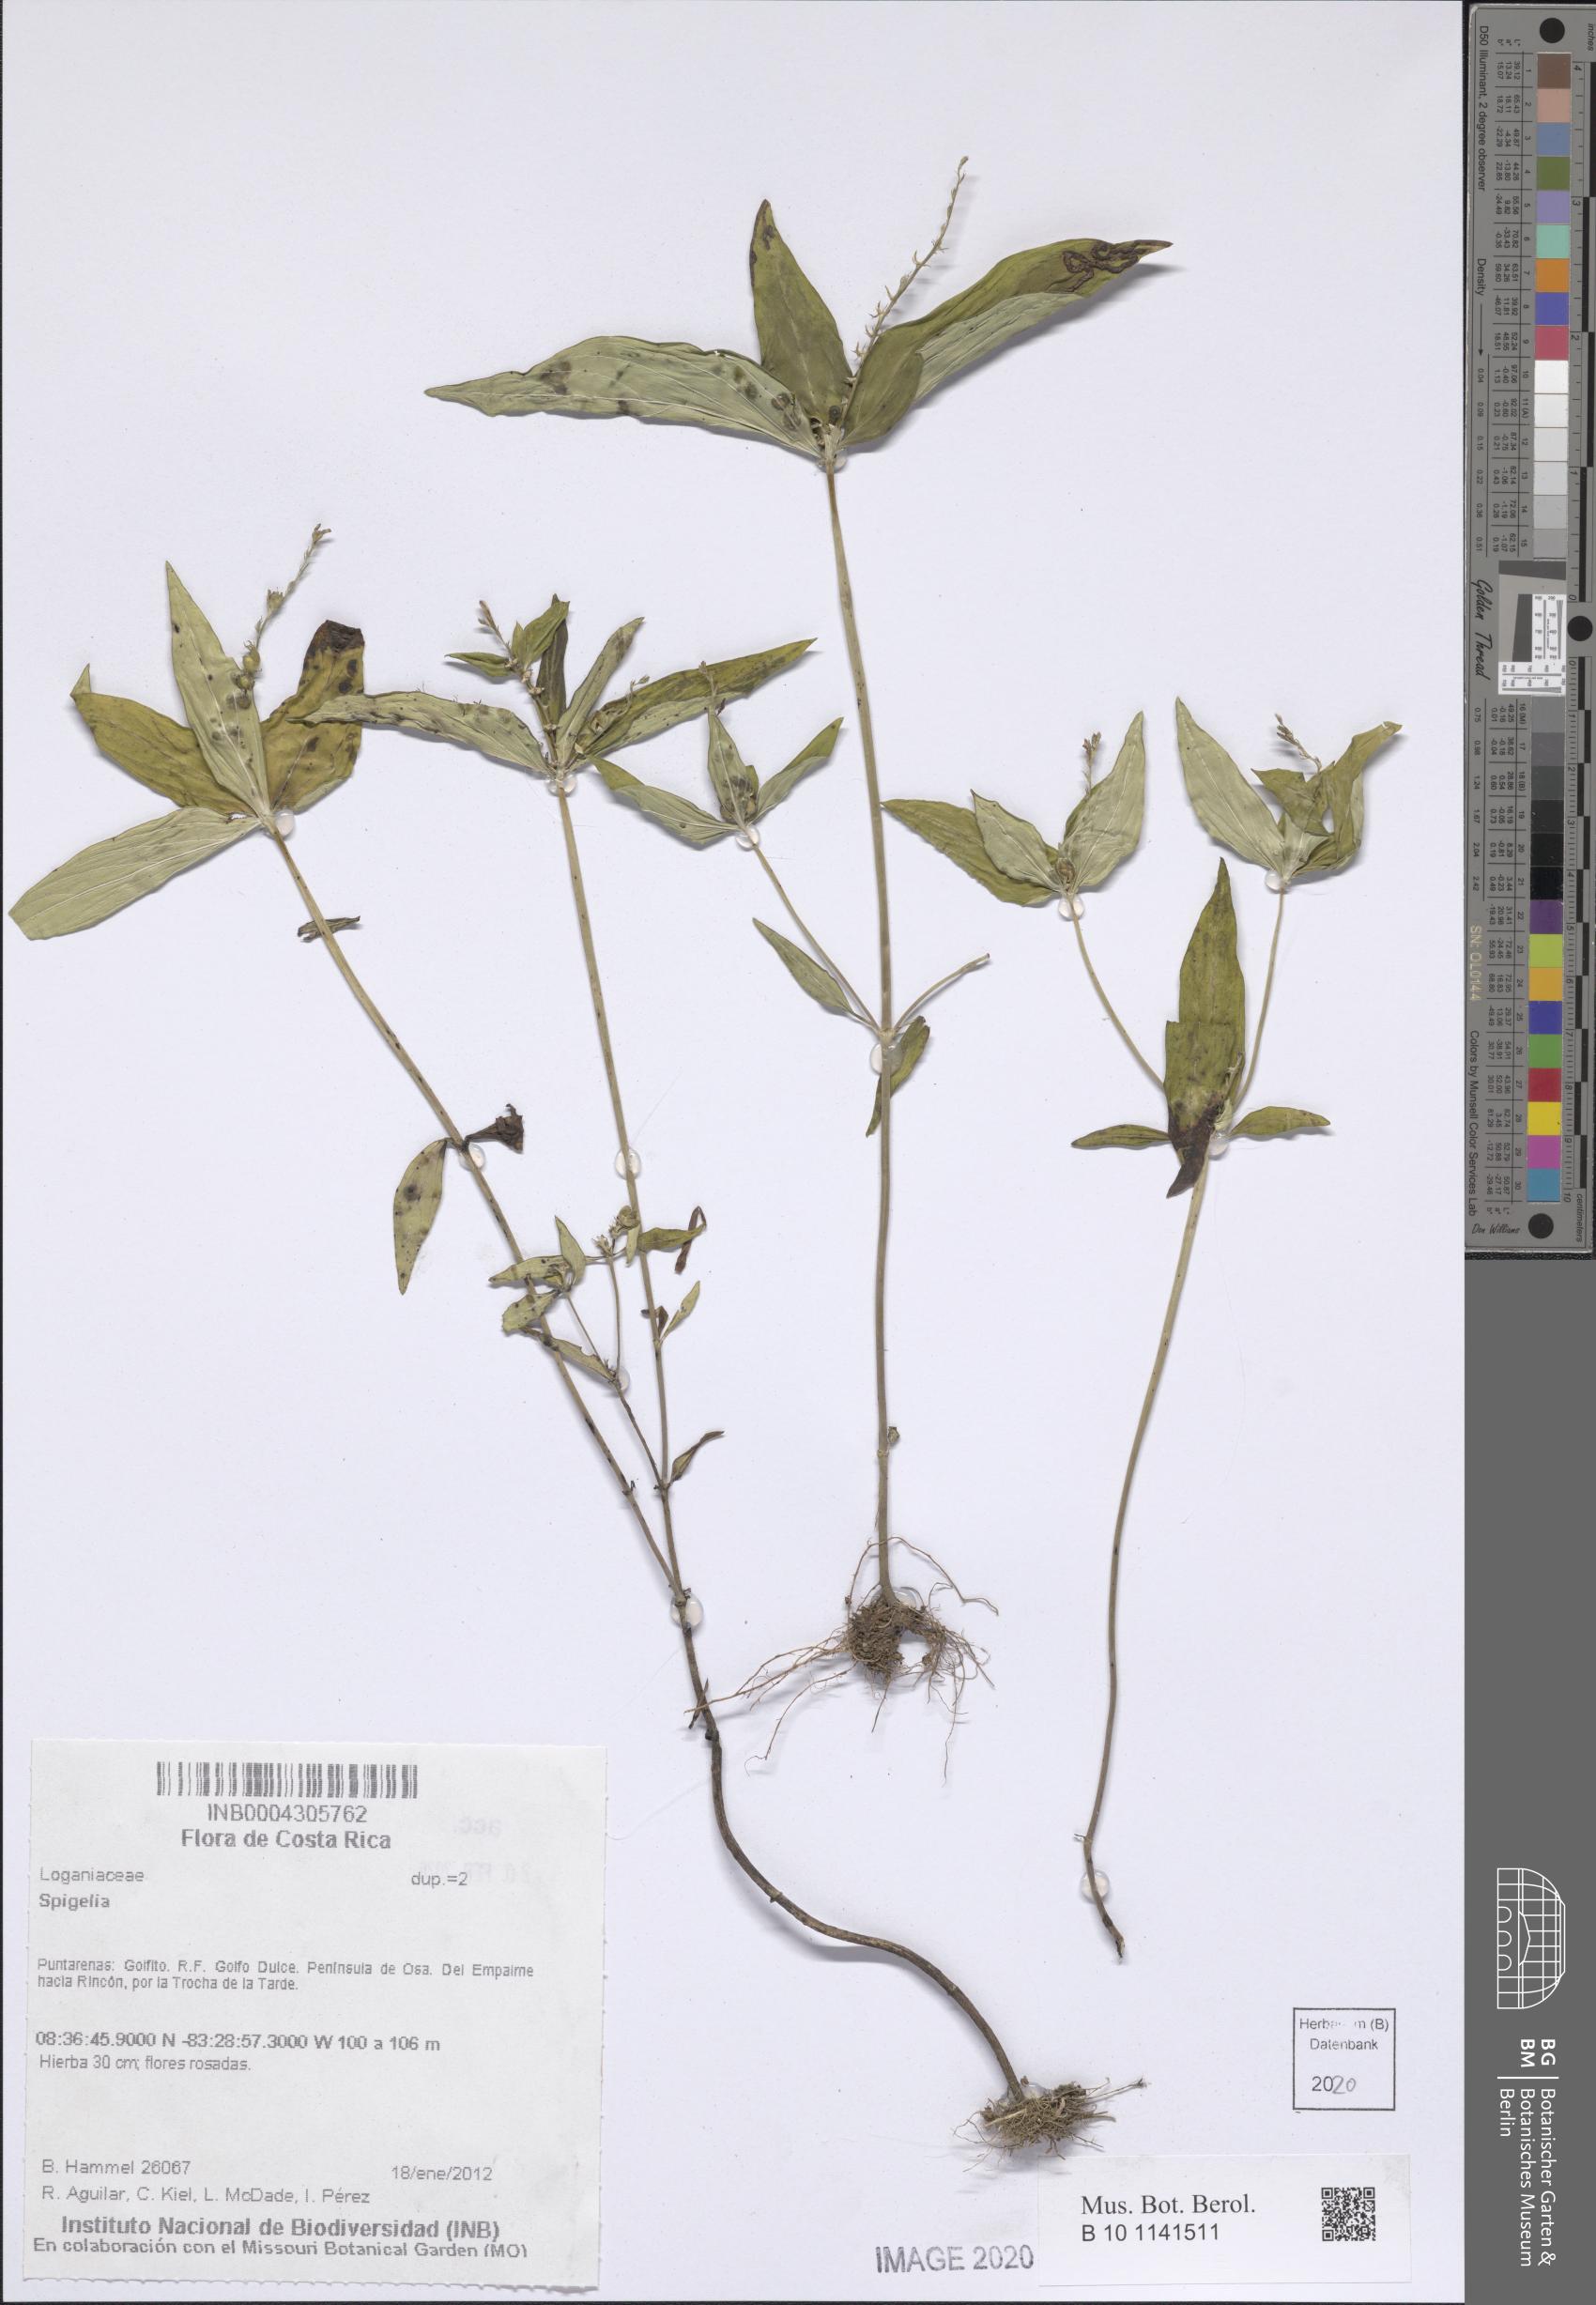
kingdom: Plantae
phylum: Tracheophyta
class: Magnoliopsida
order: Gentianales
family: Loganiaceae
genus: Spigelia
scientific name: Spigelia
